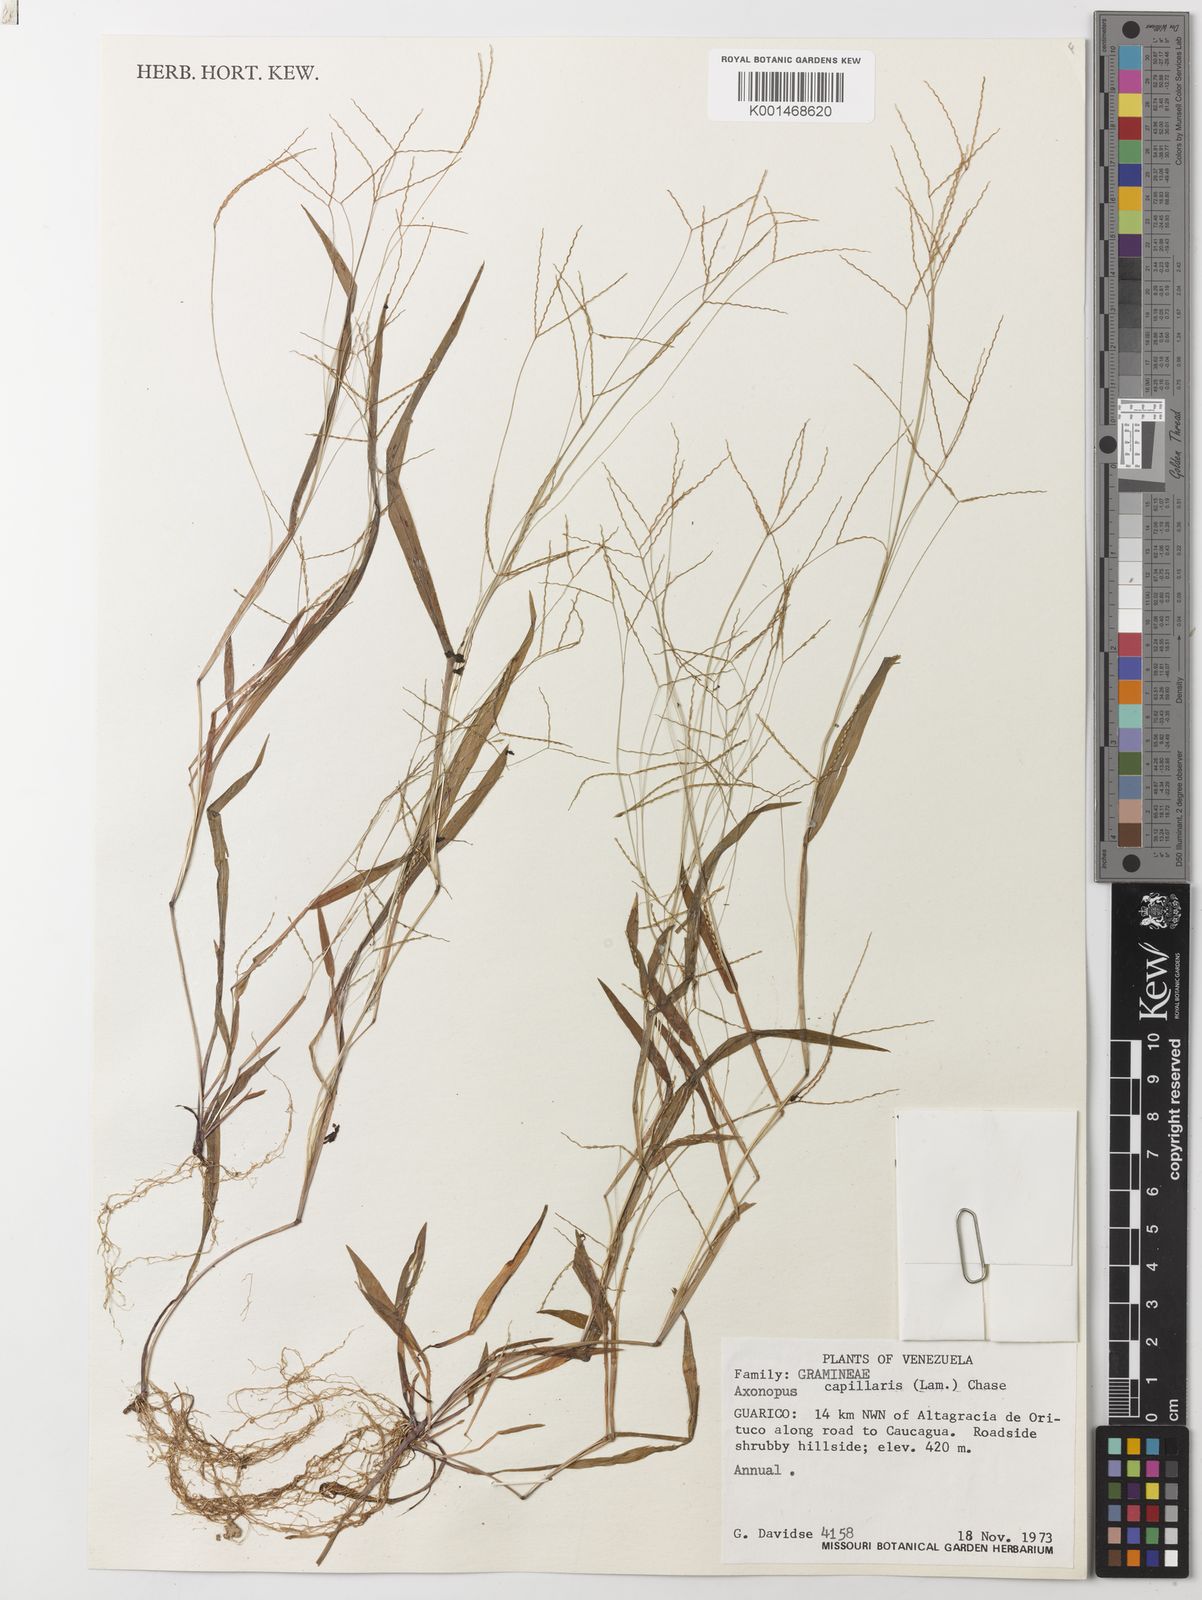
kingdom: Plantae
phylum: Tracheophyta
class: Liliopsida
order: Poales
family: Poaceae
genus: Axonopus
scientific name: Axonopus capillaris
